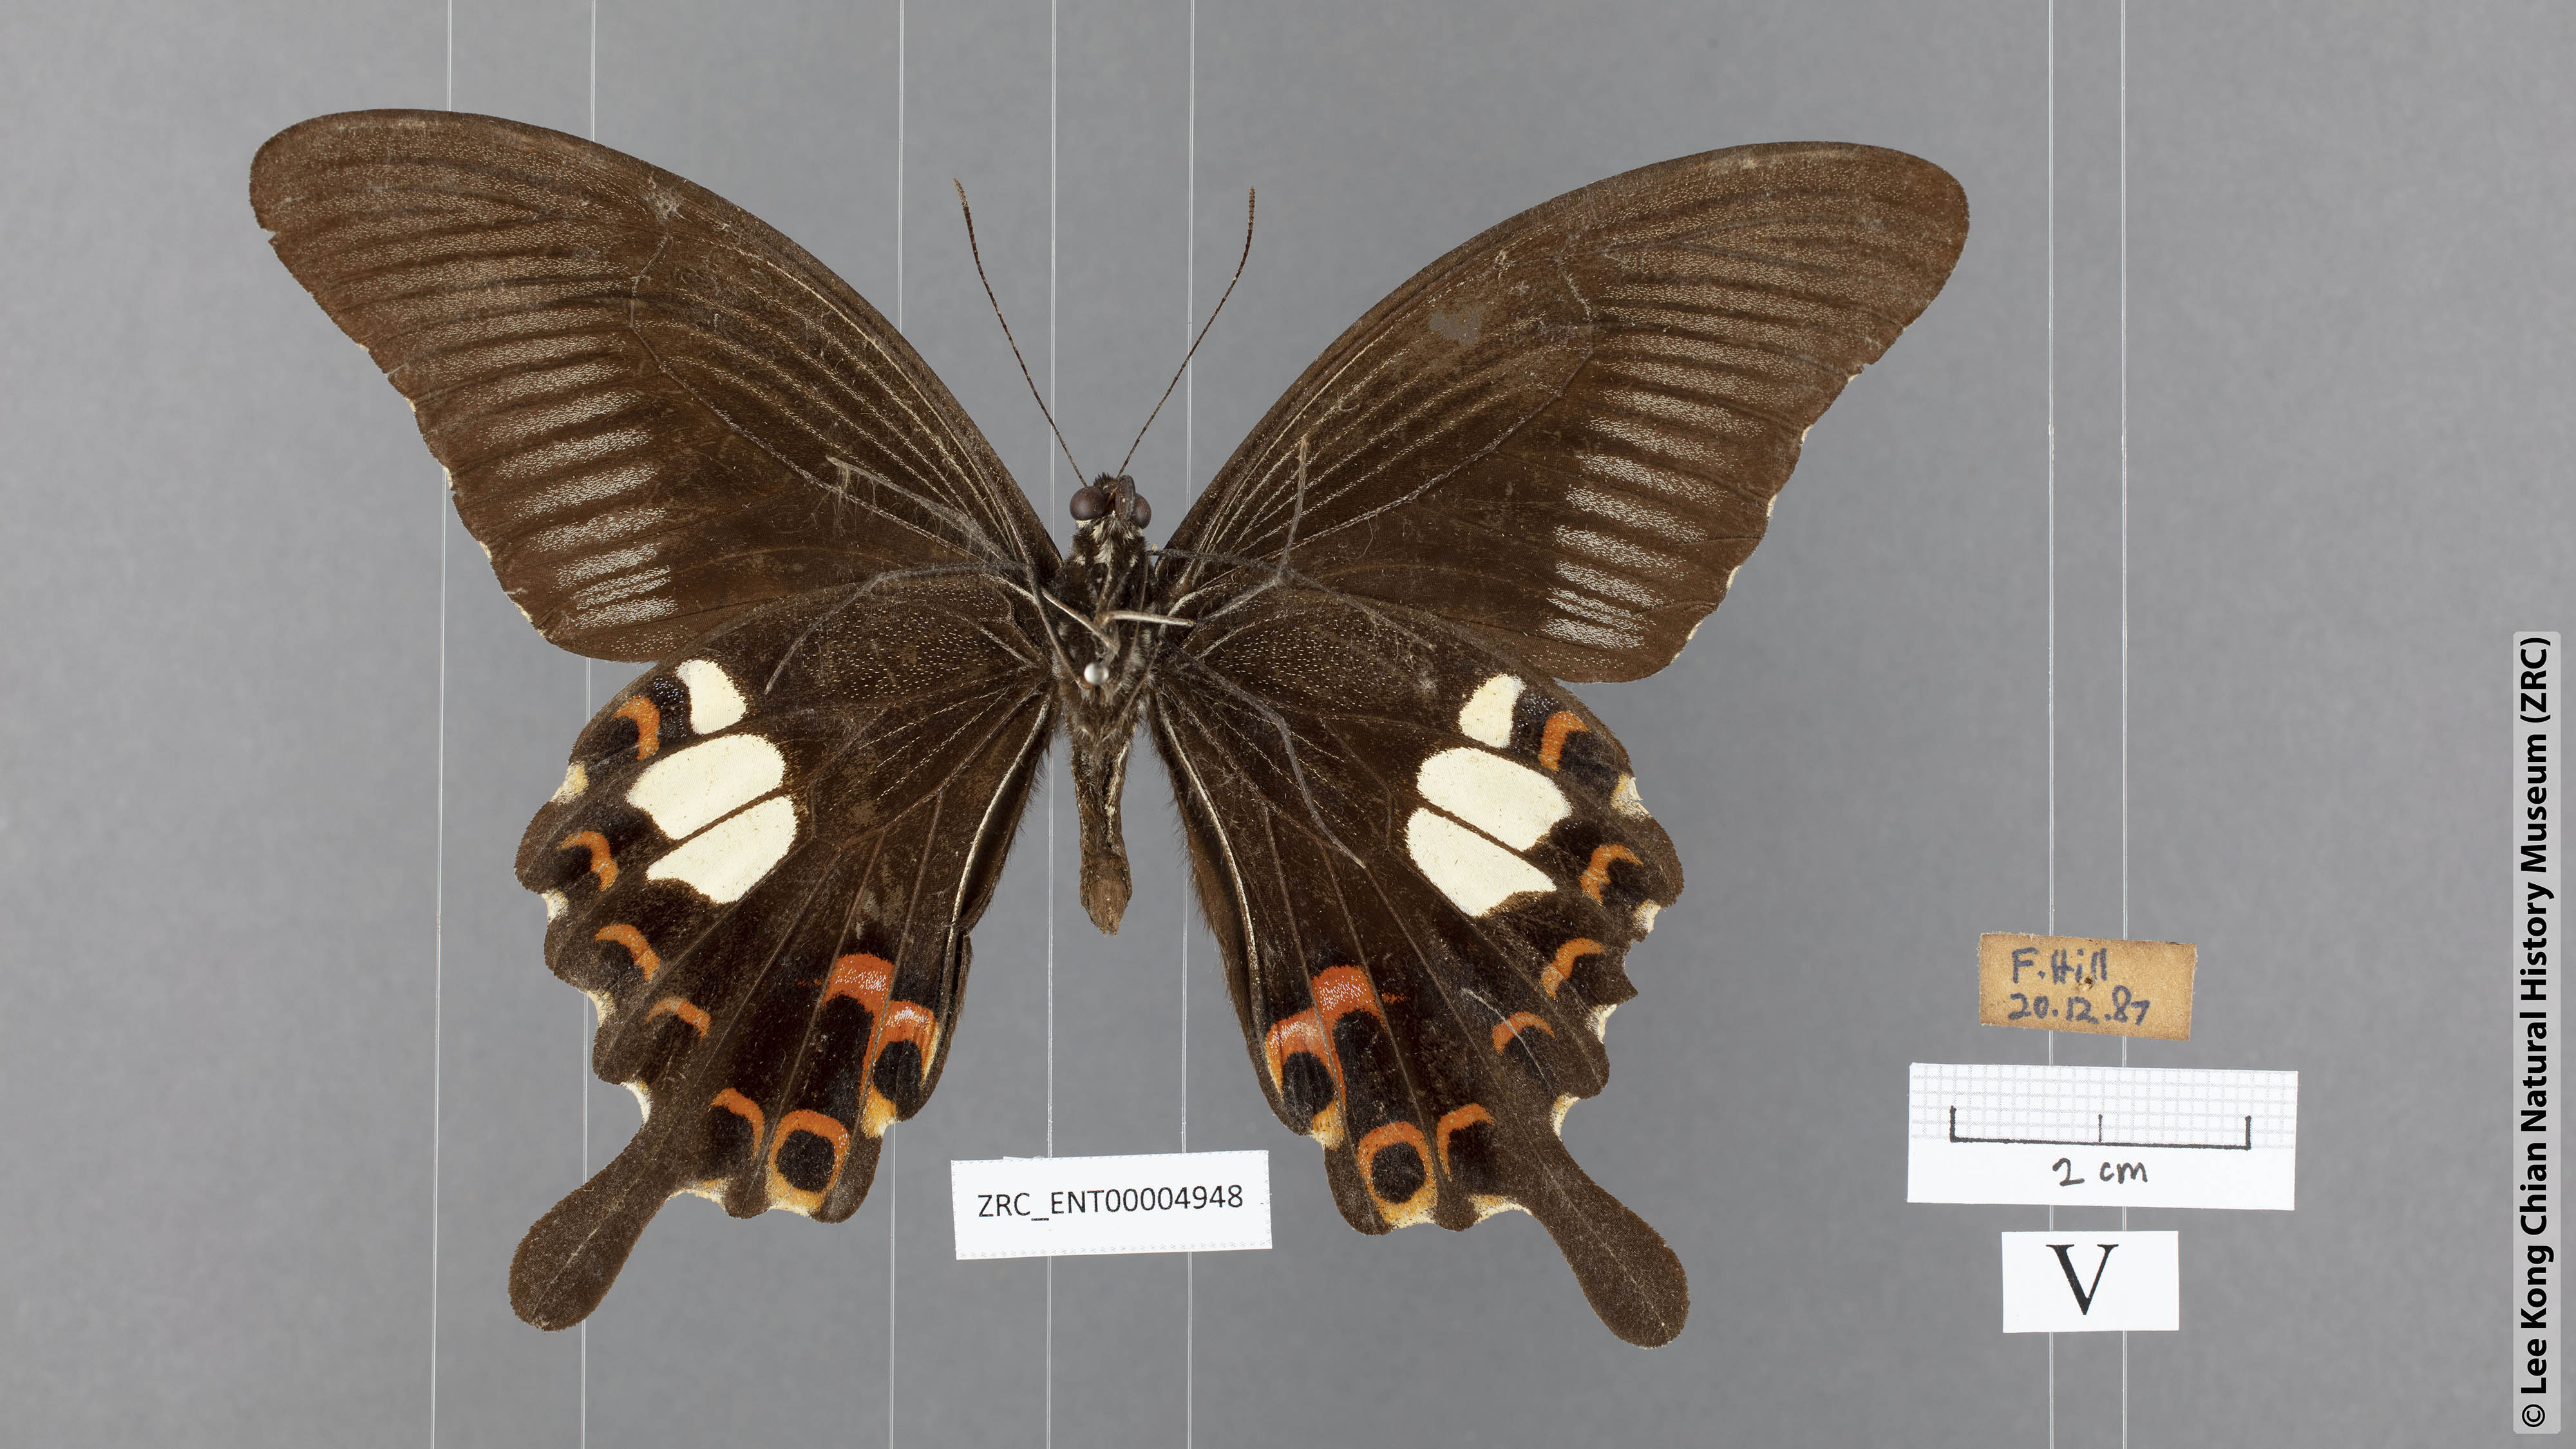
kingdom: Animalia
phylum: Arthropoda
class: Insecta
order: Lepidoptera
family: Papilionidae
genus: Papilio
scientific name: Papilio helenus
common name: Red helen
